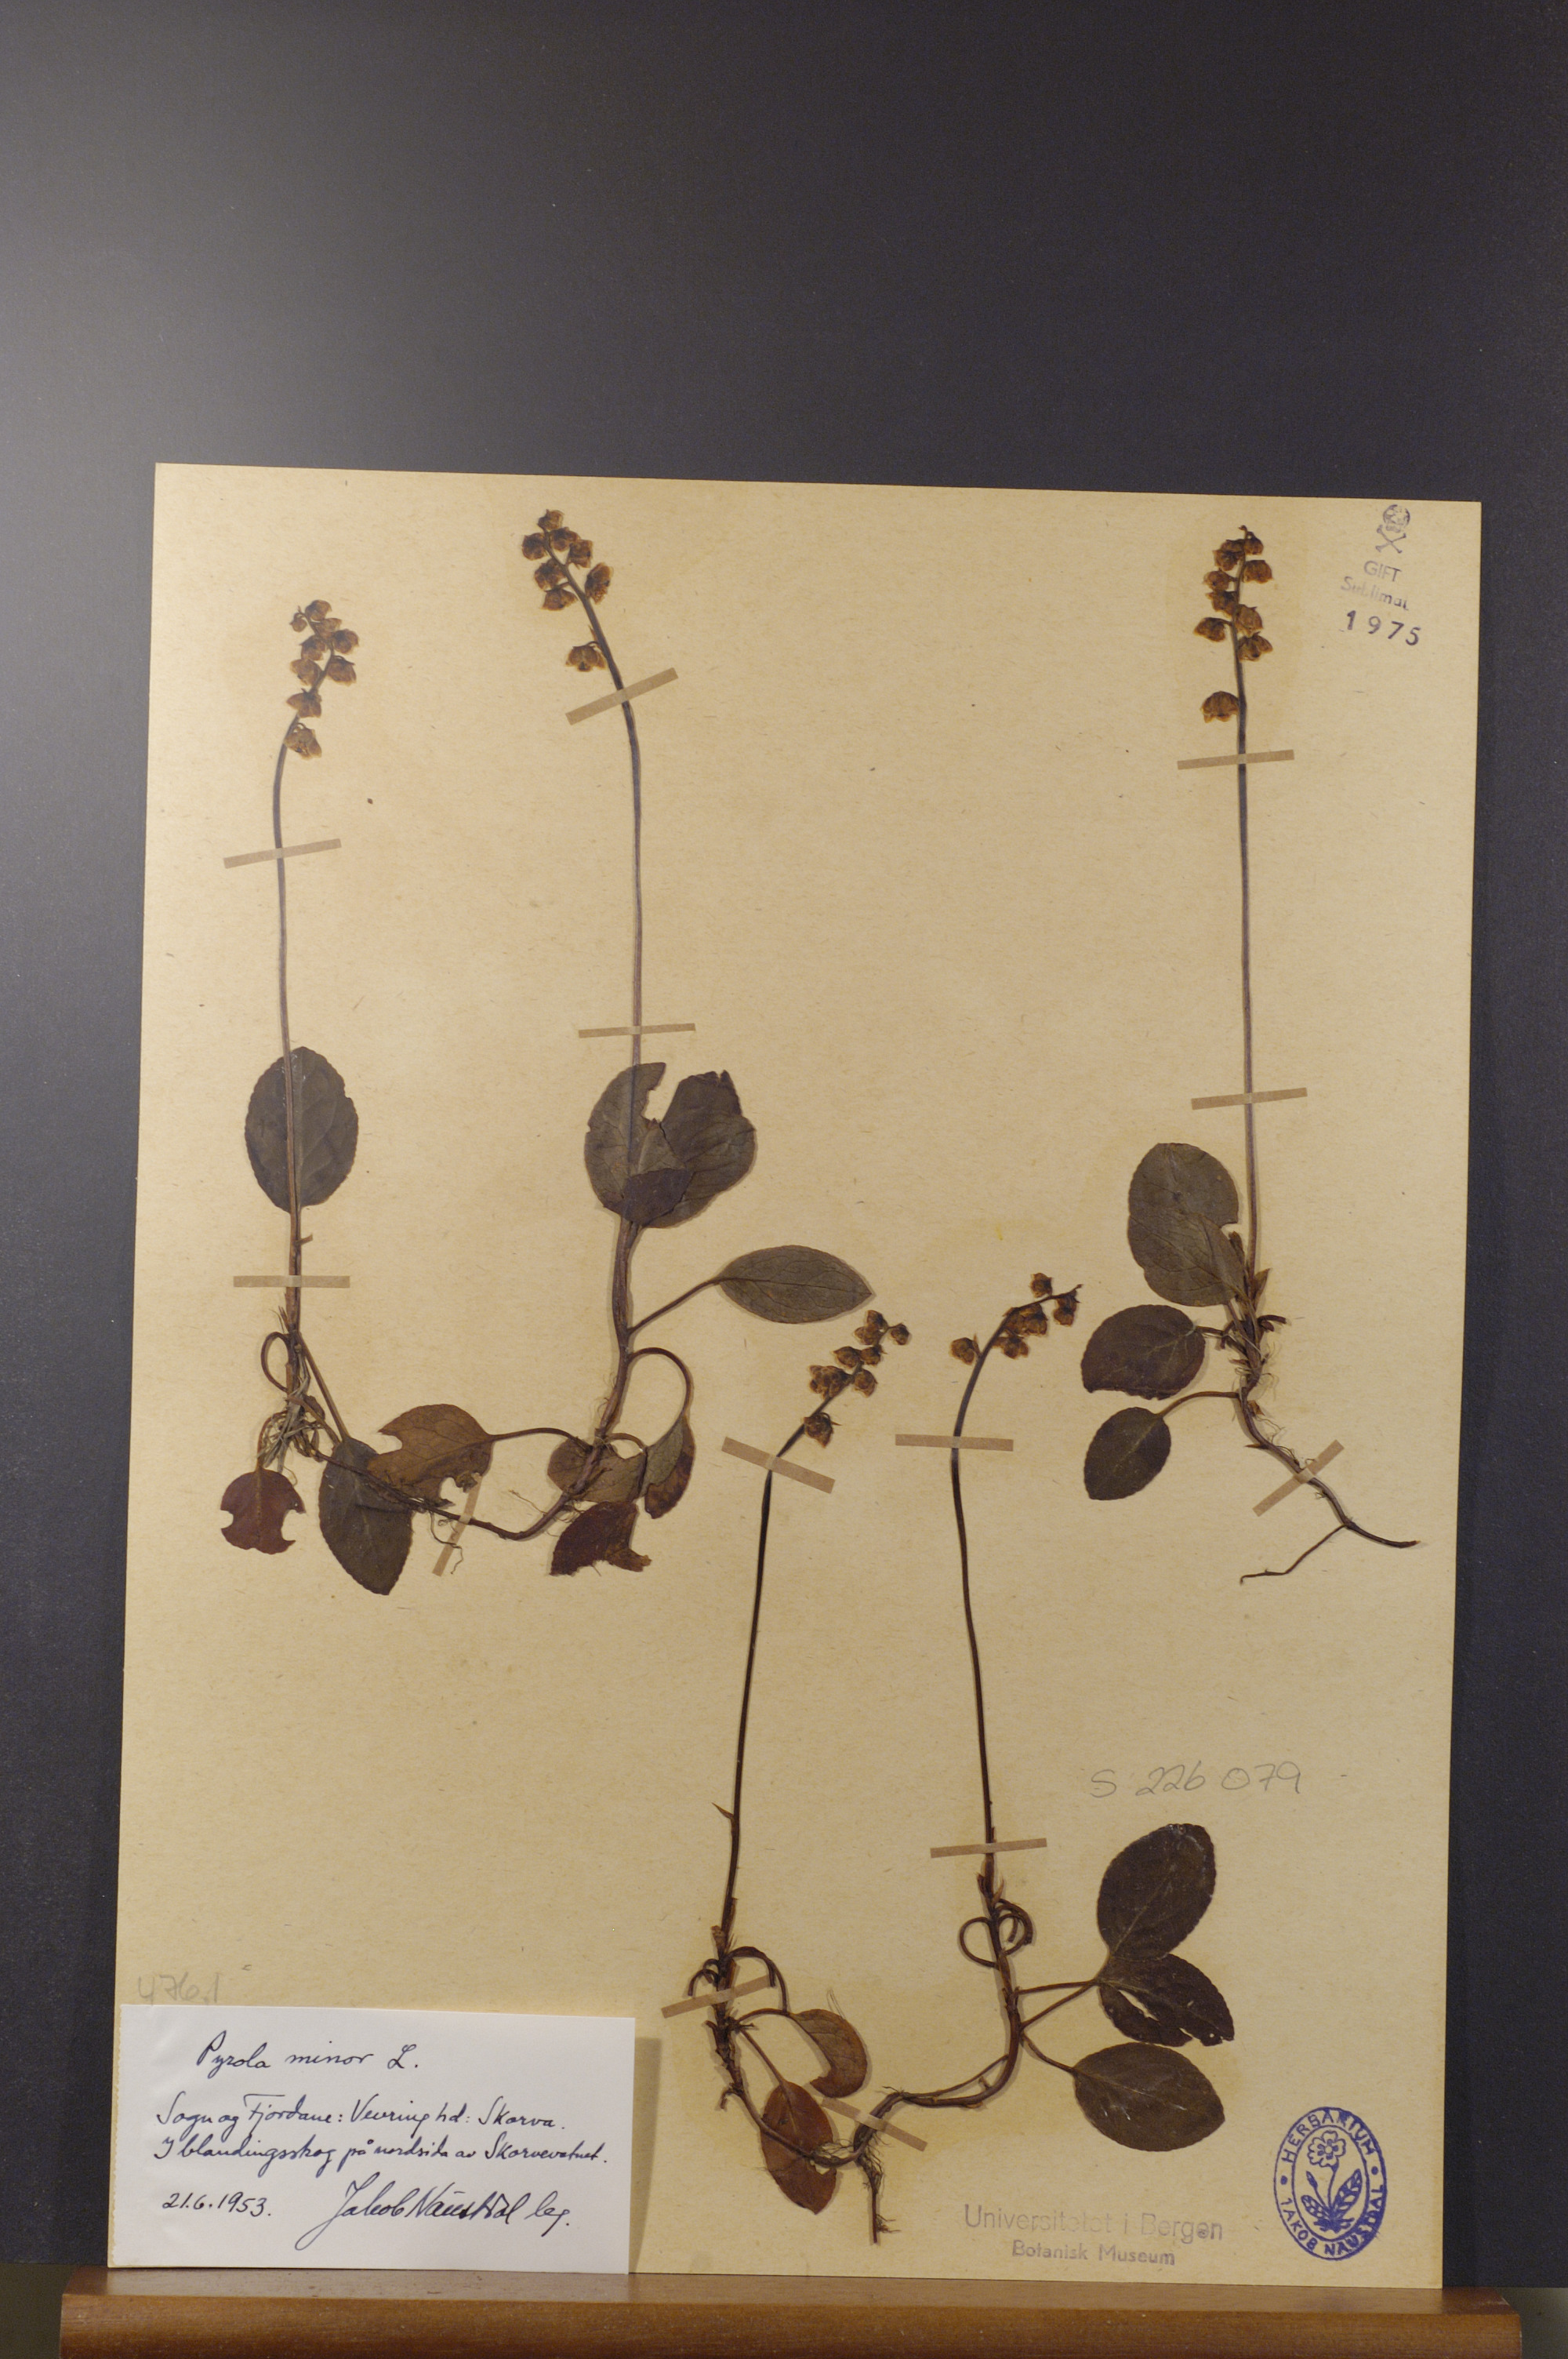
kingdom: Plantae
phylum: Tracheophyta
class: Magnoliopsida
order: Ericales
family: Ericaceae
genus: Pyrola
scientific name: Pyrola minor
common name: Common wintergreen
